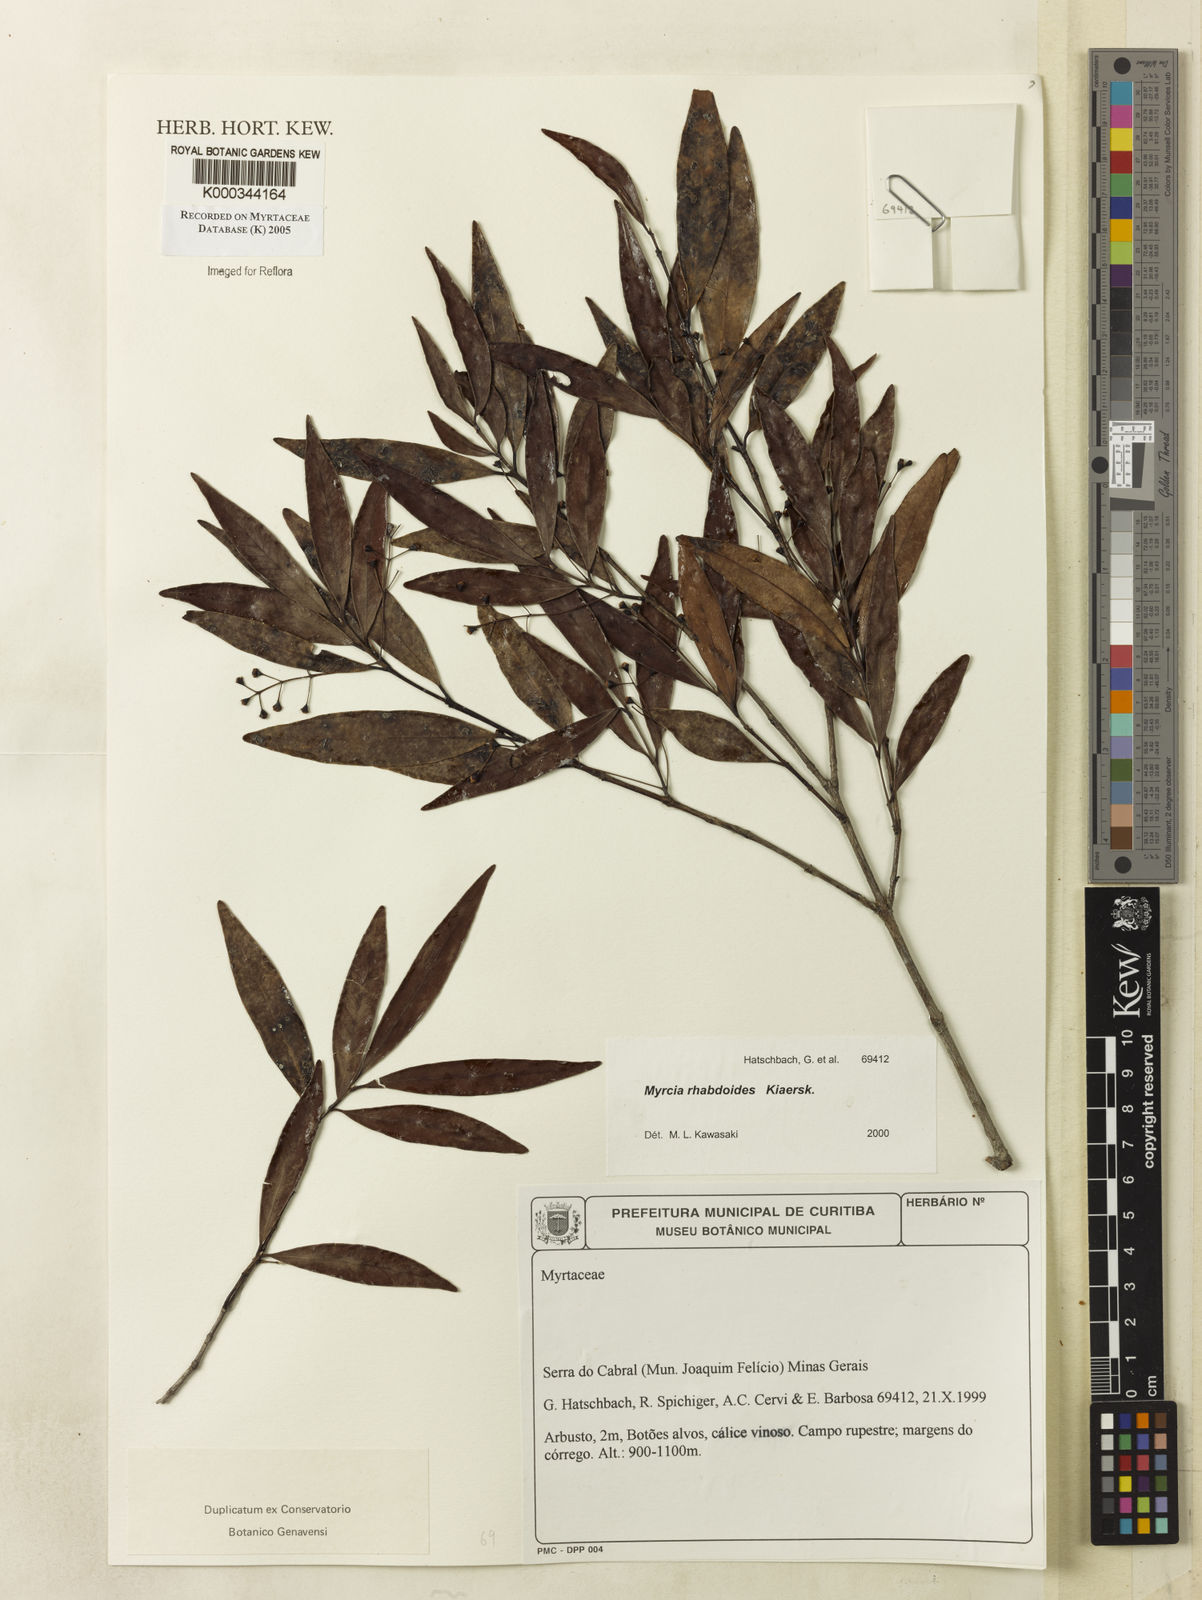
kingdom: Plantae
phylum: Tracheophyta
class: Magnoliopsida
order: Myrtales
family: Myrtaceae
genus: Myrcia
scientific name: Myrcia guianensis
